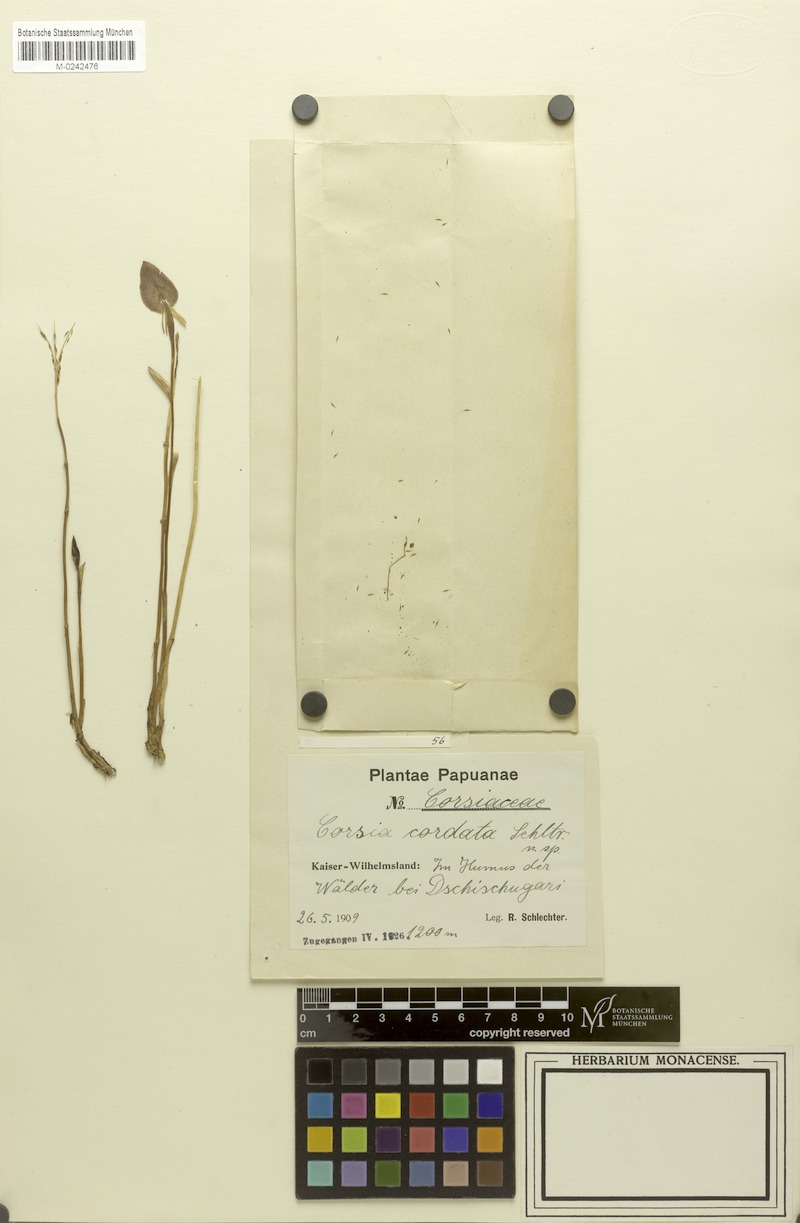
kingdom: Plantae
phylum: Tracheophyta
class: Liliopsida
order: Liliales
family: Corsiaceae
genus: Corsia
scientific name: Corsia cordata
